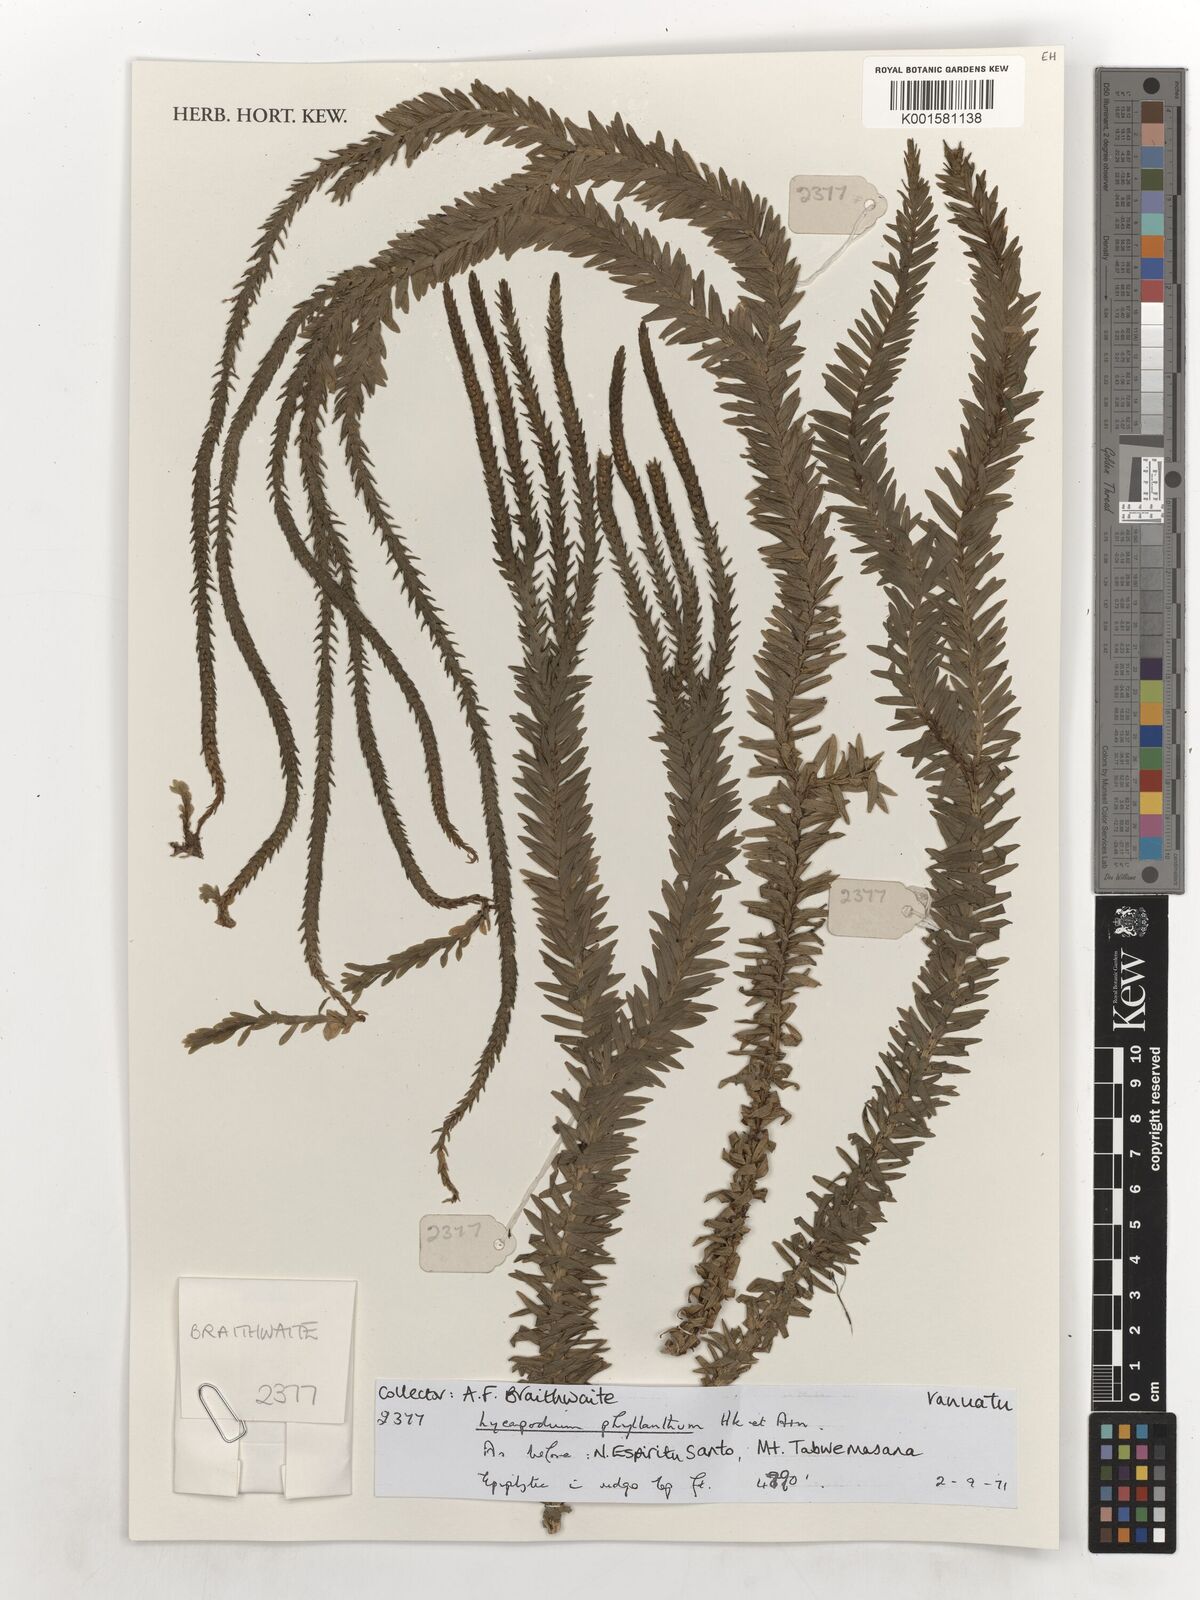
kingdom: Plantae
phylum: Tracheophyta
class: Lycopodiopsida
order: Lycopodiales
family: Lycopodiaceae
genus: Phlegmariurus
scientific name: Phlegmariurus phyllanthus
